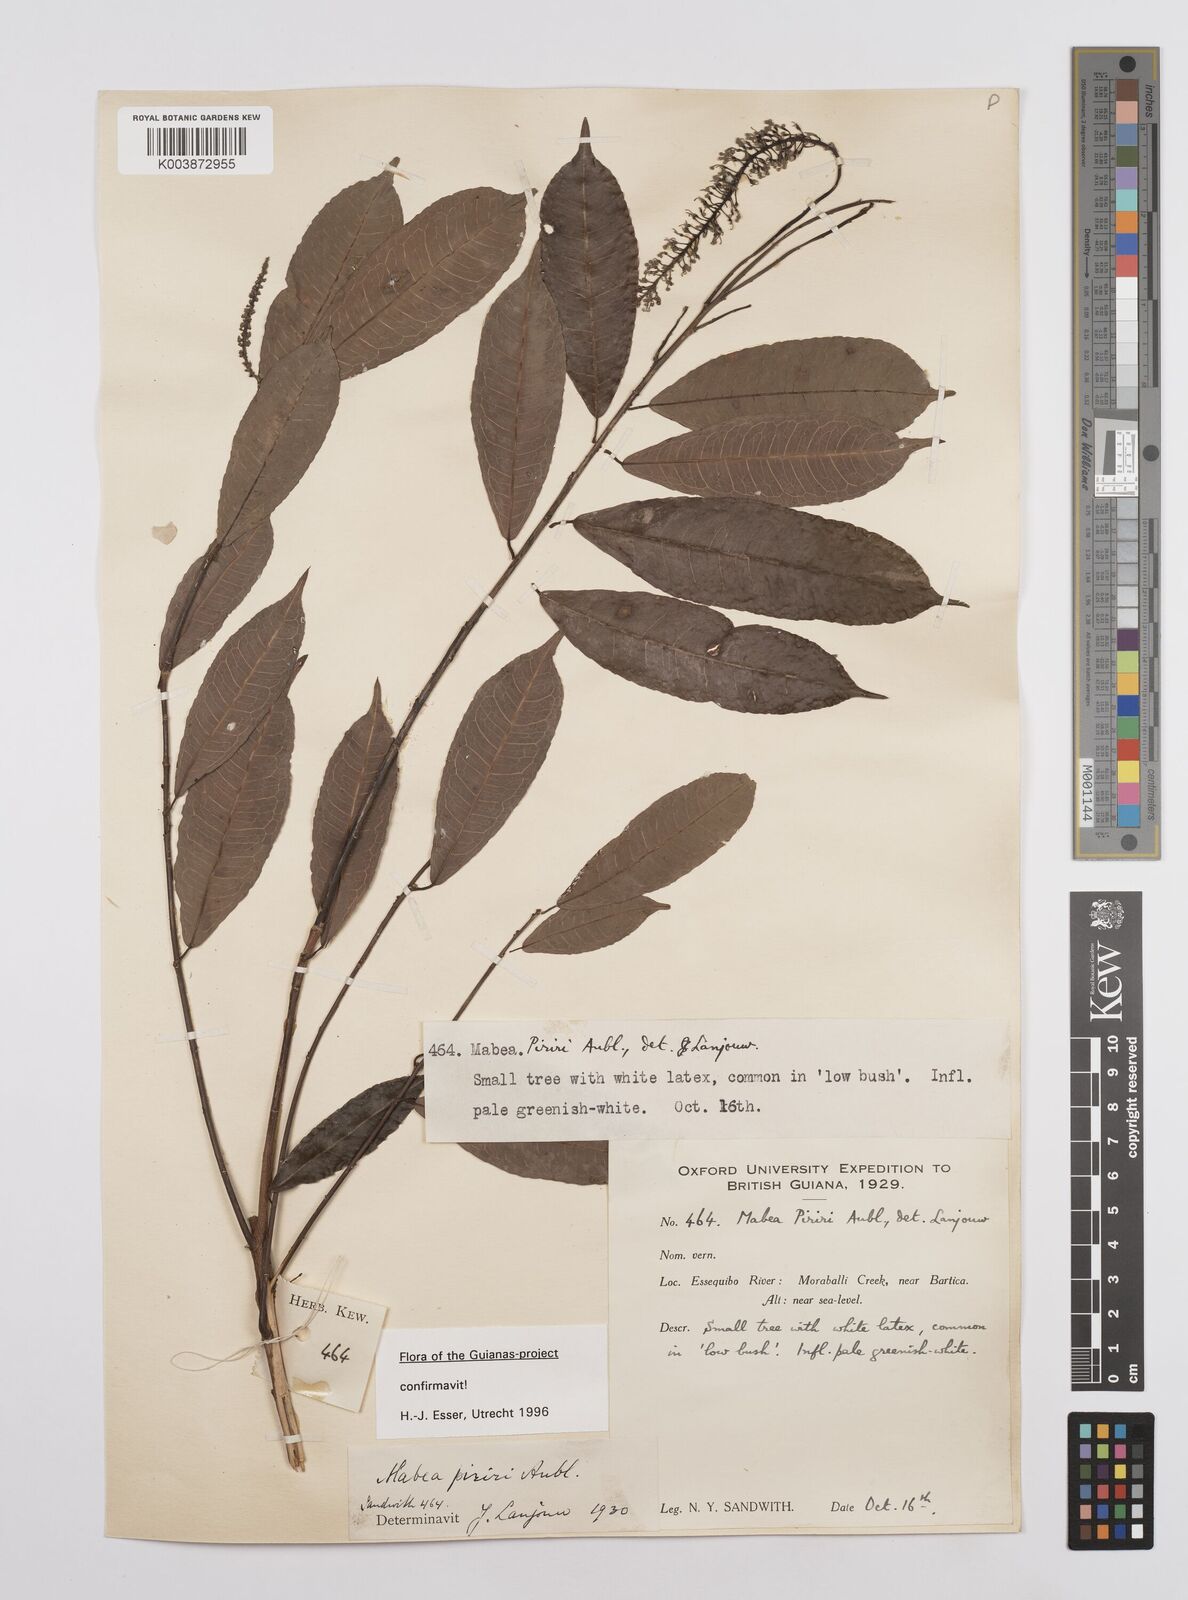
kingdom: Plantae
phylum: Tracheophyta
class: Magnoliopsida
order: Malpighiales
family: Euphorbiaceae
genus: Mabea
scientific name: Mabea piriri
